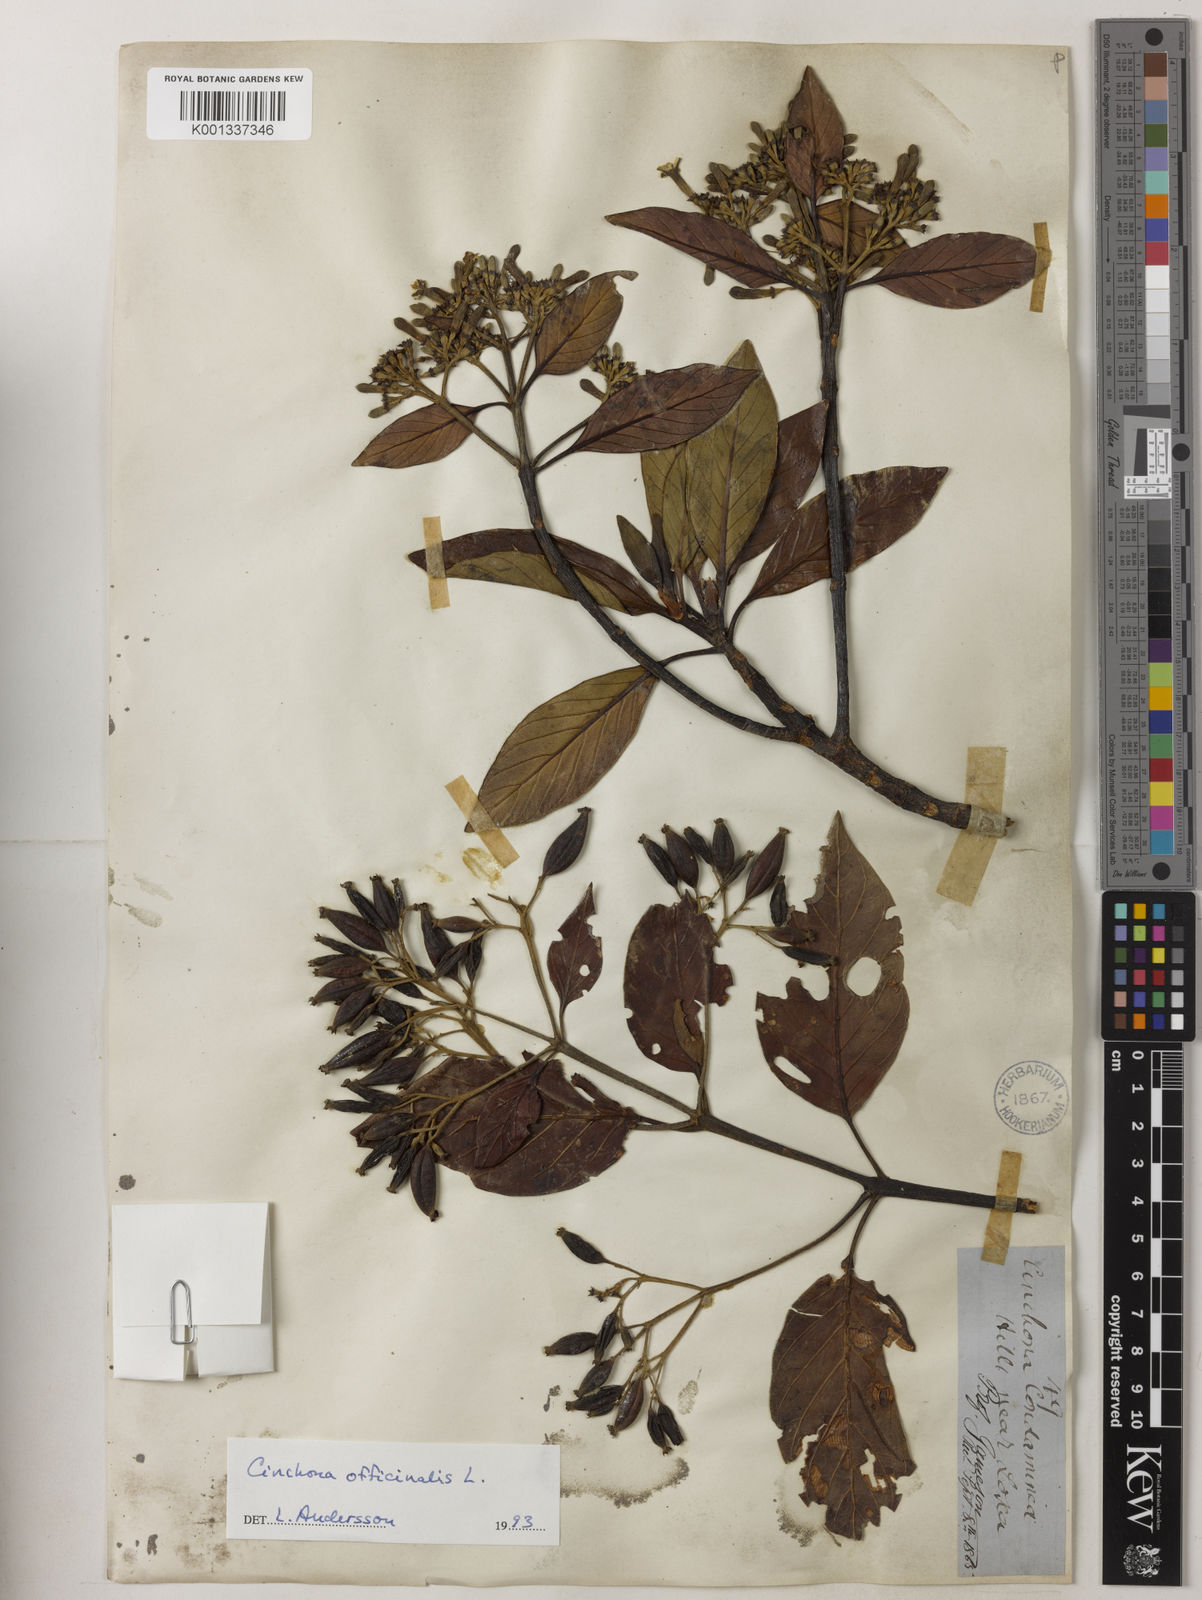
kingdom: Plantae
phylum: Tracheophyta
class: Magnoliopsida
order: Gentianales
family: Rubiaceae
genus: Cinchona
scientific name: Cinchona officinalis
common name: Lojabark
